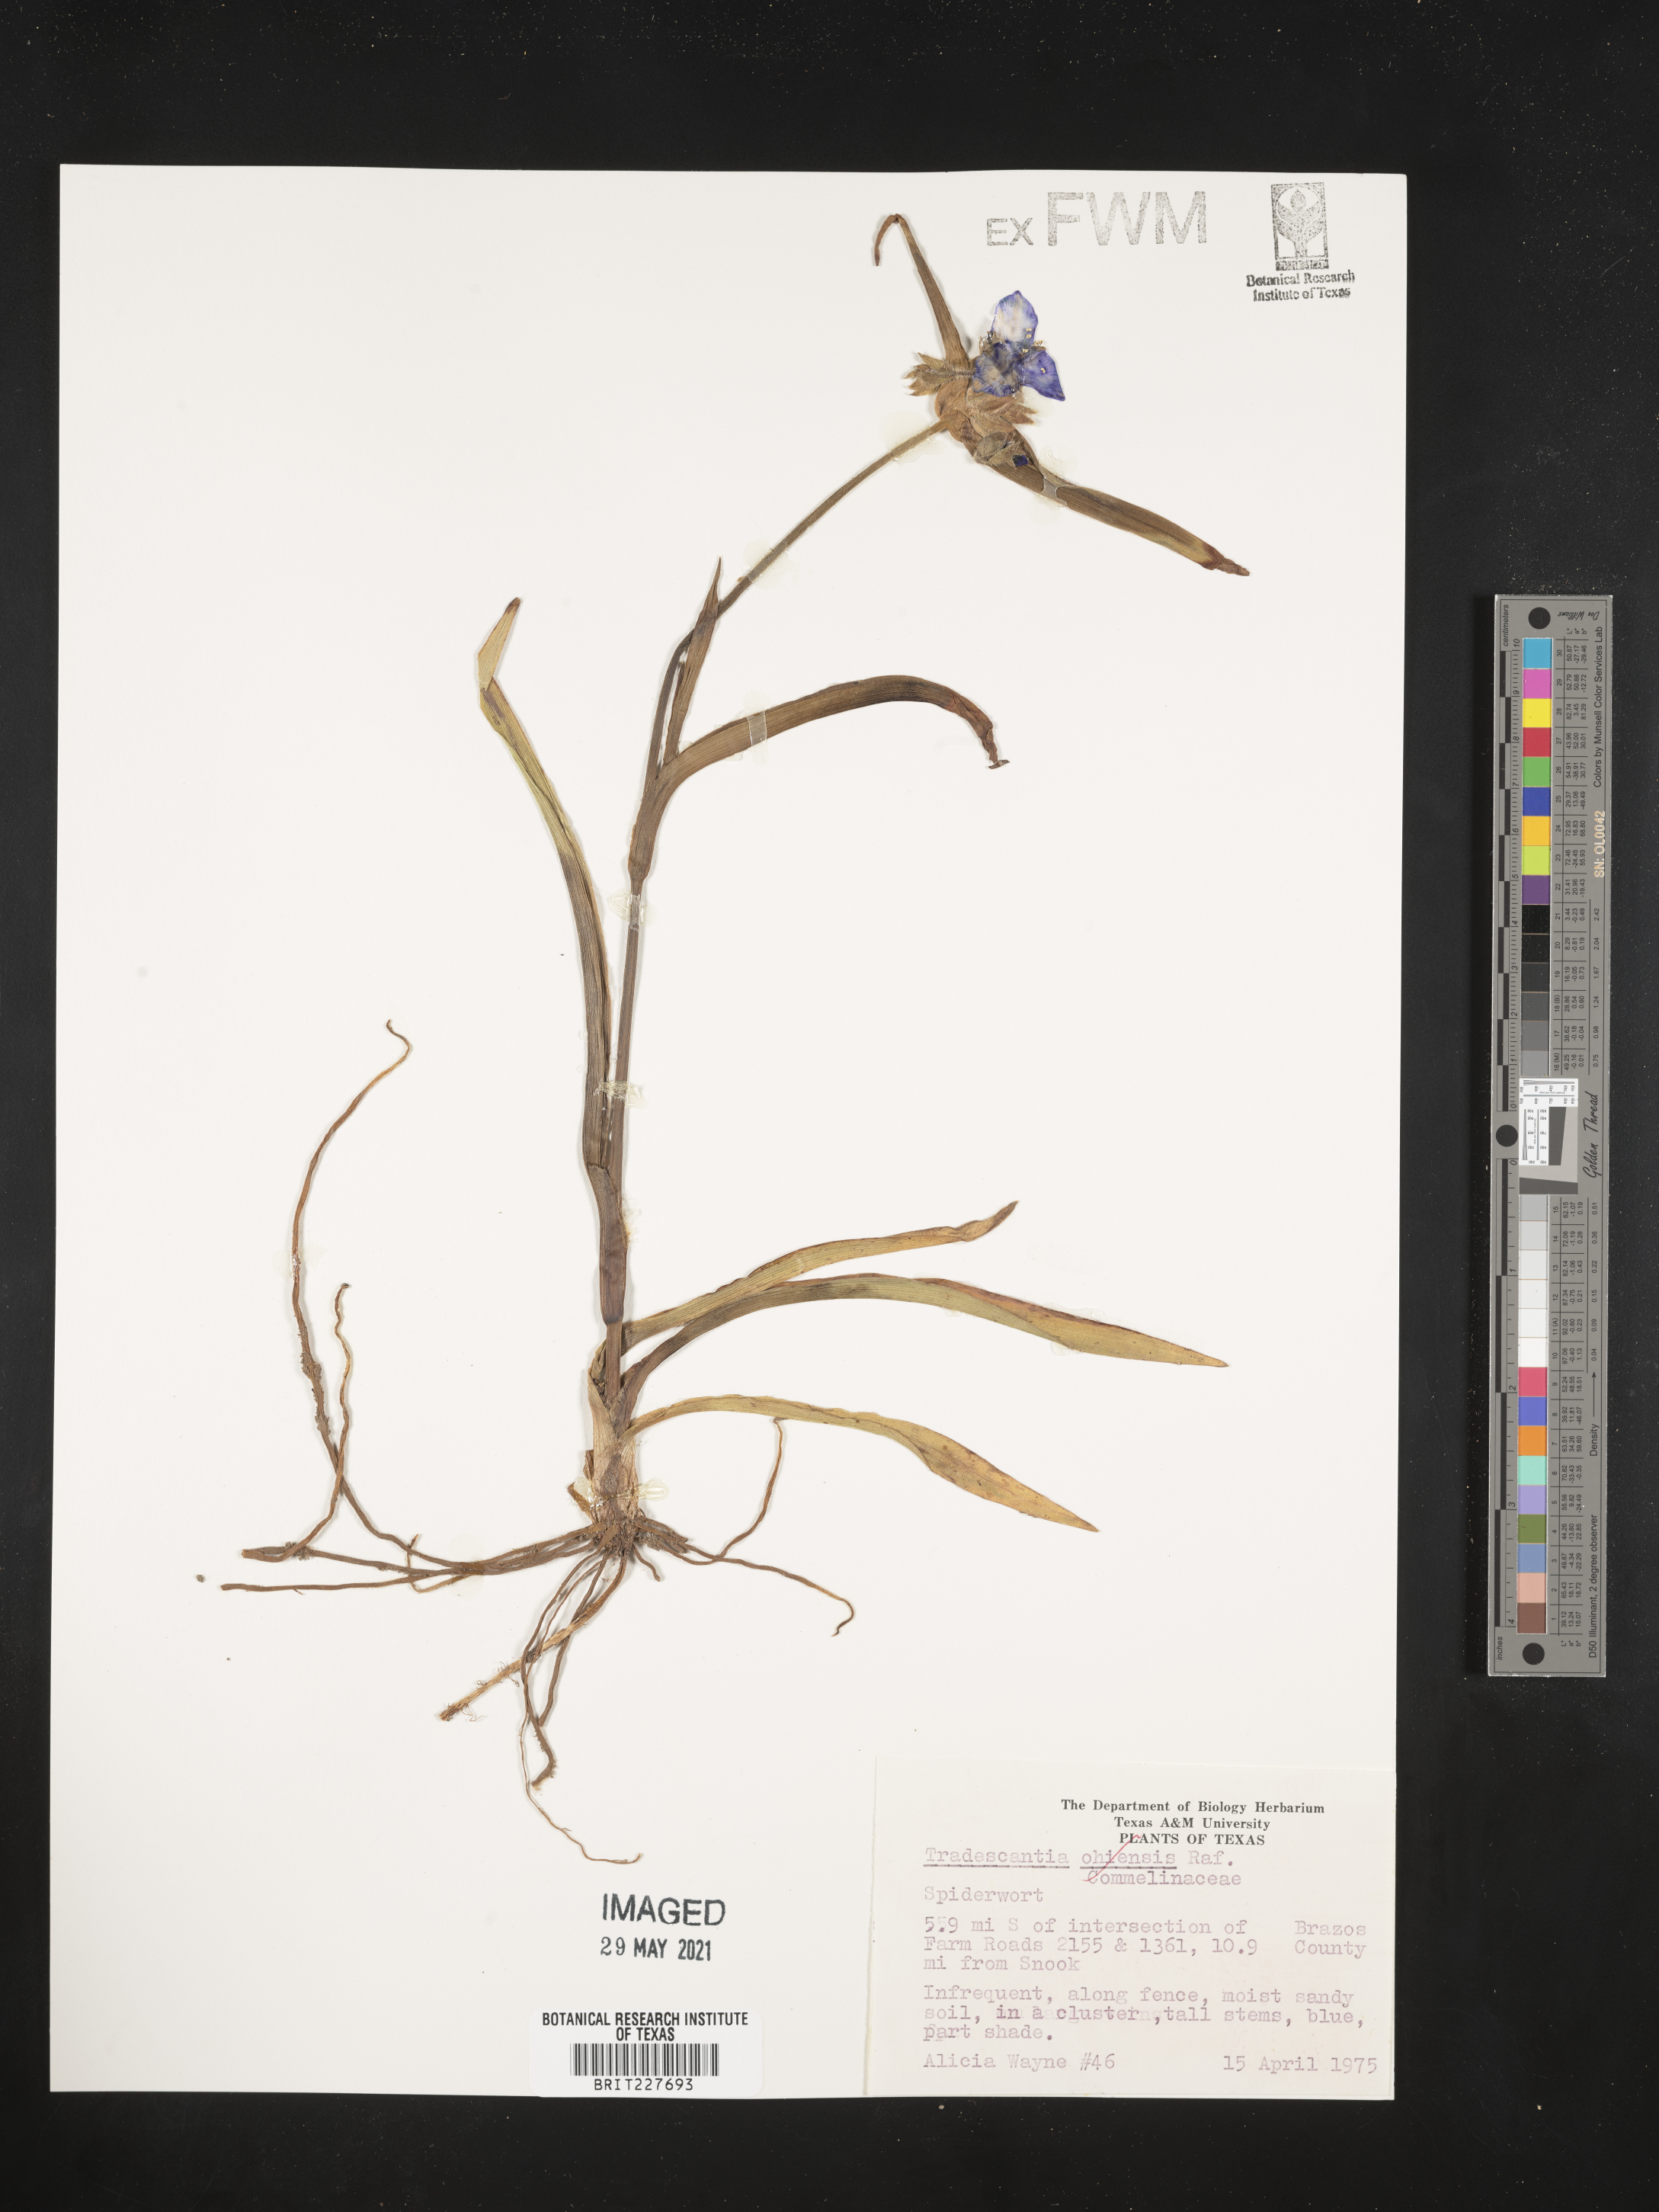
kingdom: Plantae
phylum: Tracheophyta
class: Liliopsida
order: Commelinales
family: Commelinaceae
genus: Tradescantia
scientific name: Tradescantia ohiensis
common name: Ohio spiderwort
